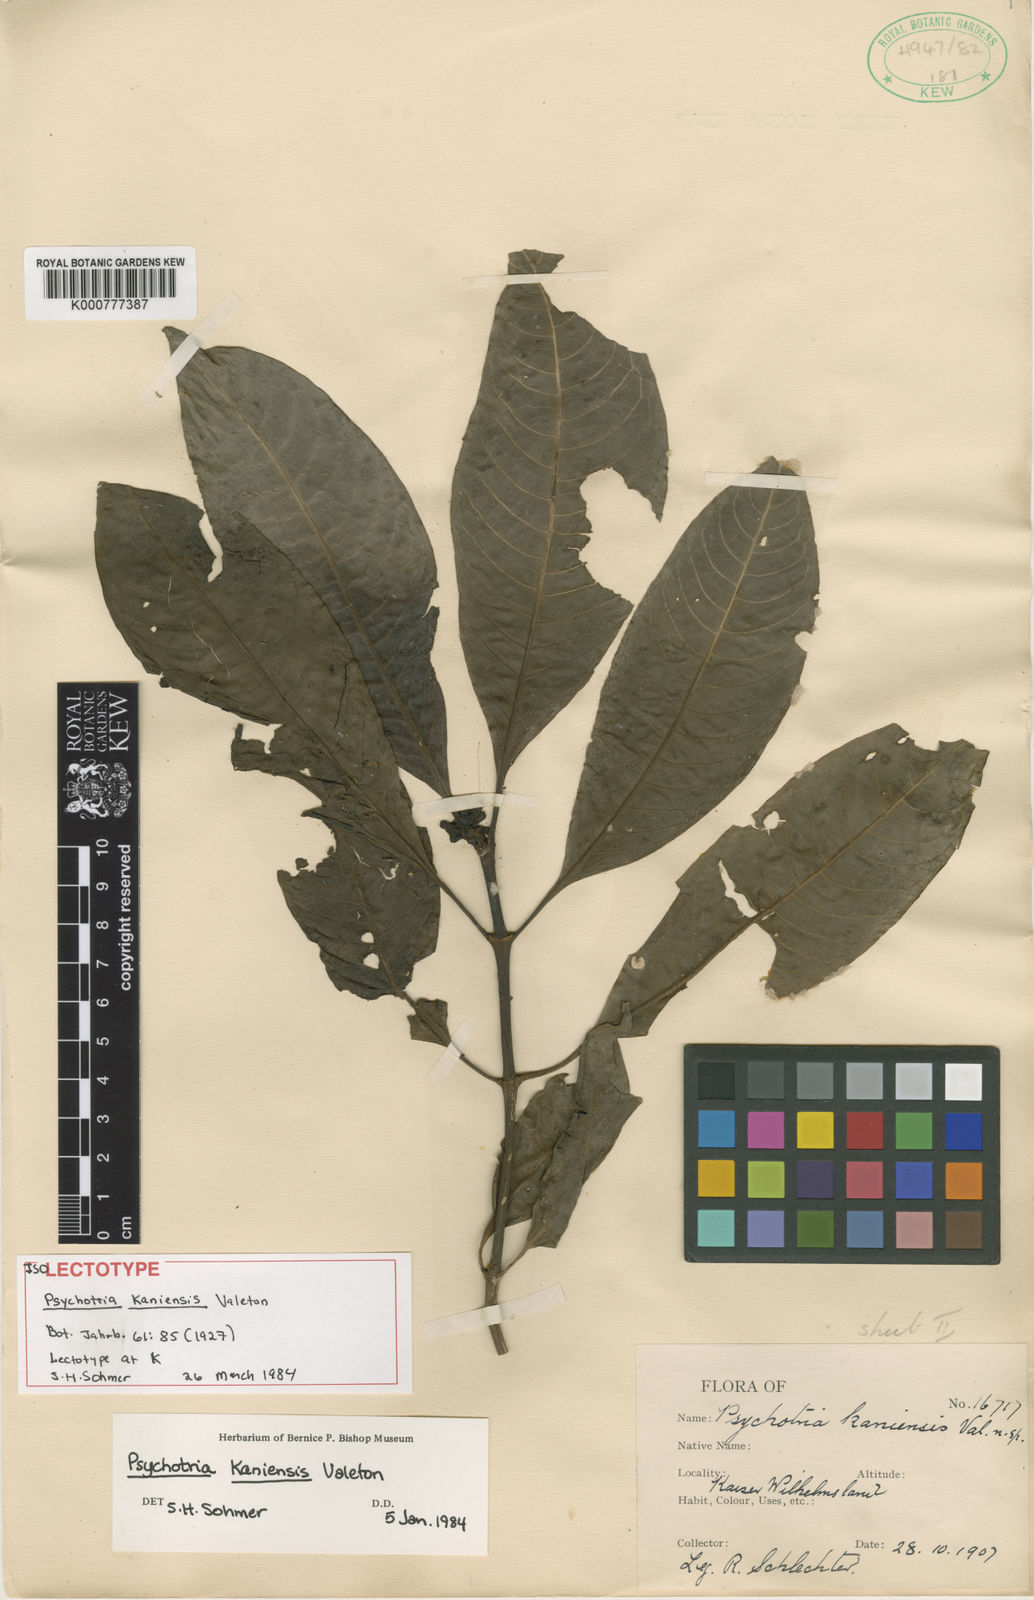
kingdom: Plantae
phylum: Tracheophyta
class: Magnoliopsida
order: Gentianales
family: Rubiaceae
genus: Psychotria
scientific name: Psychotria kaniensis
